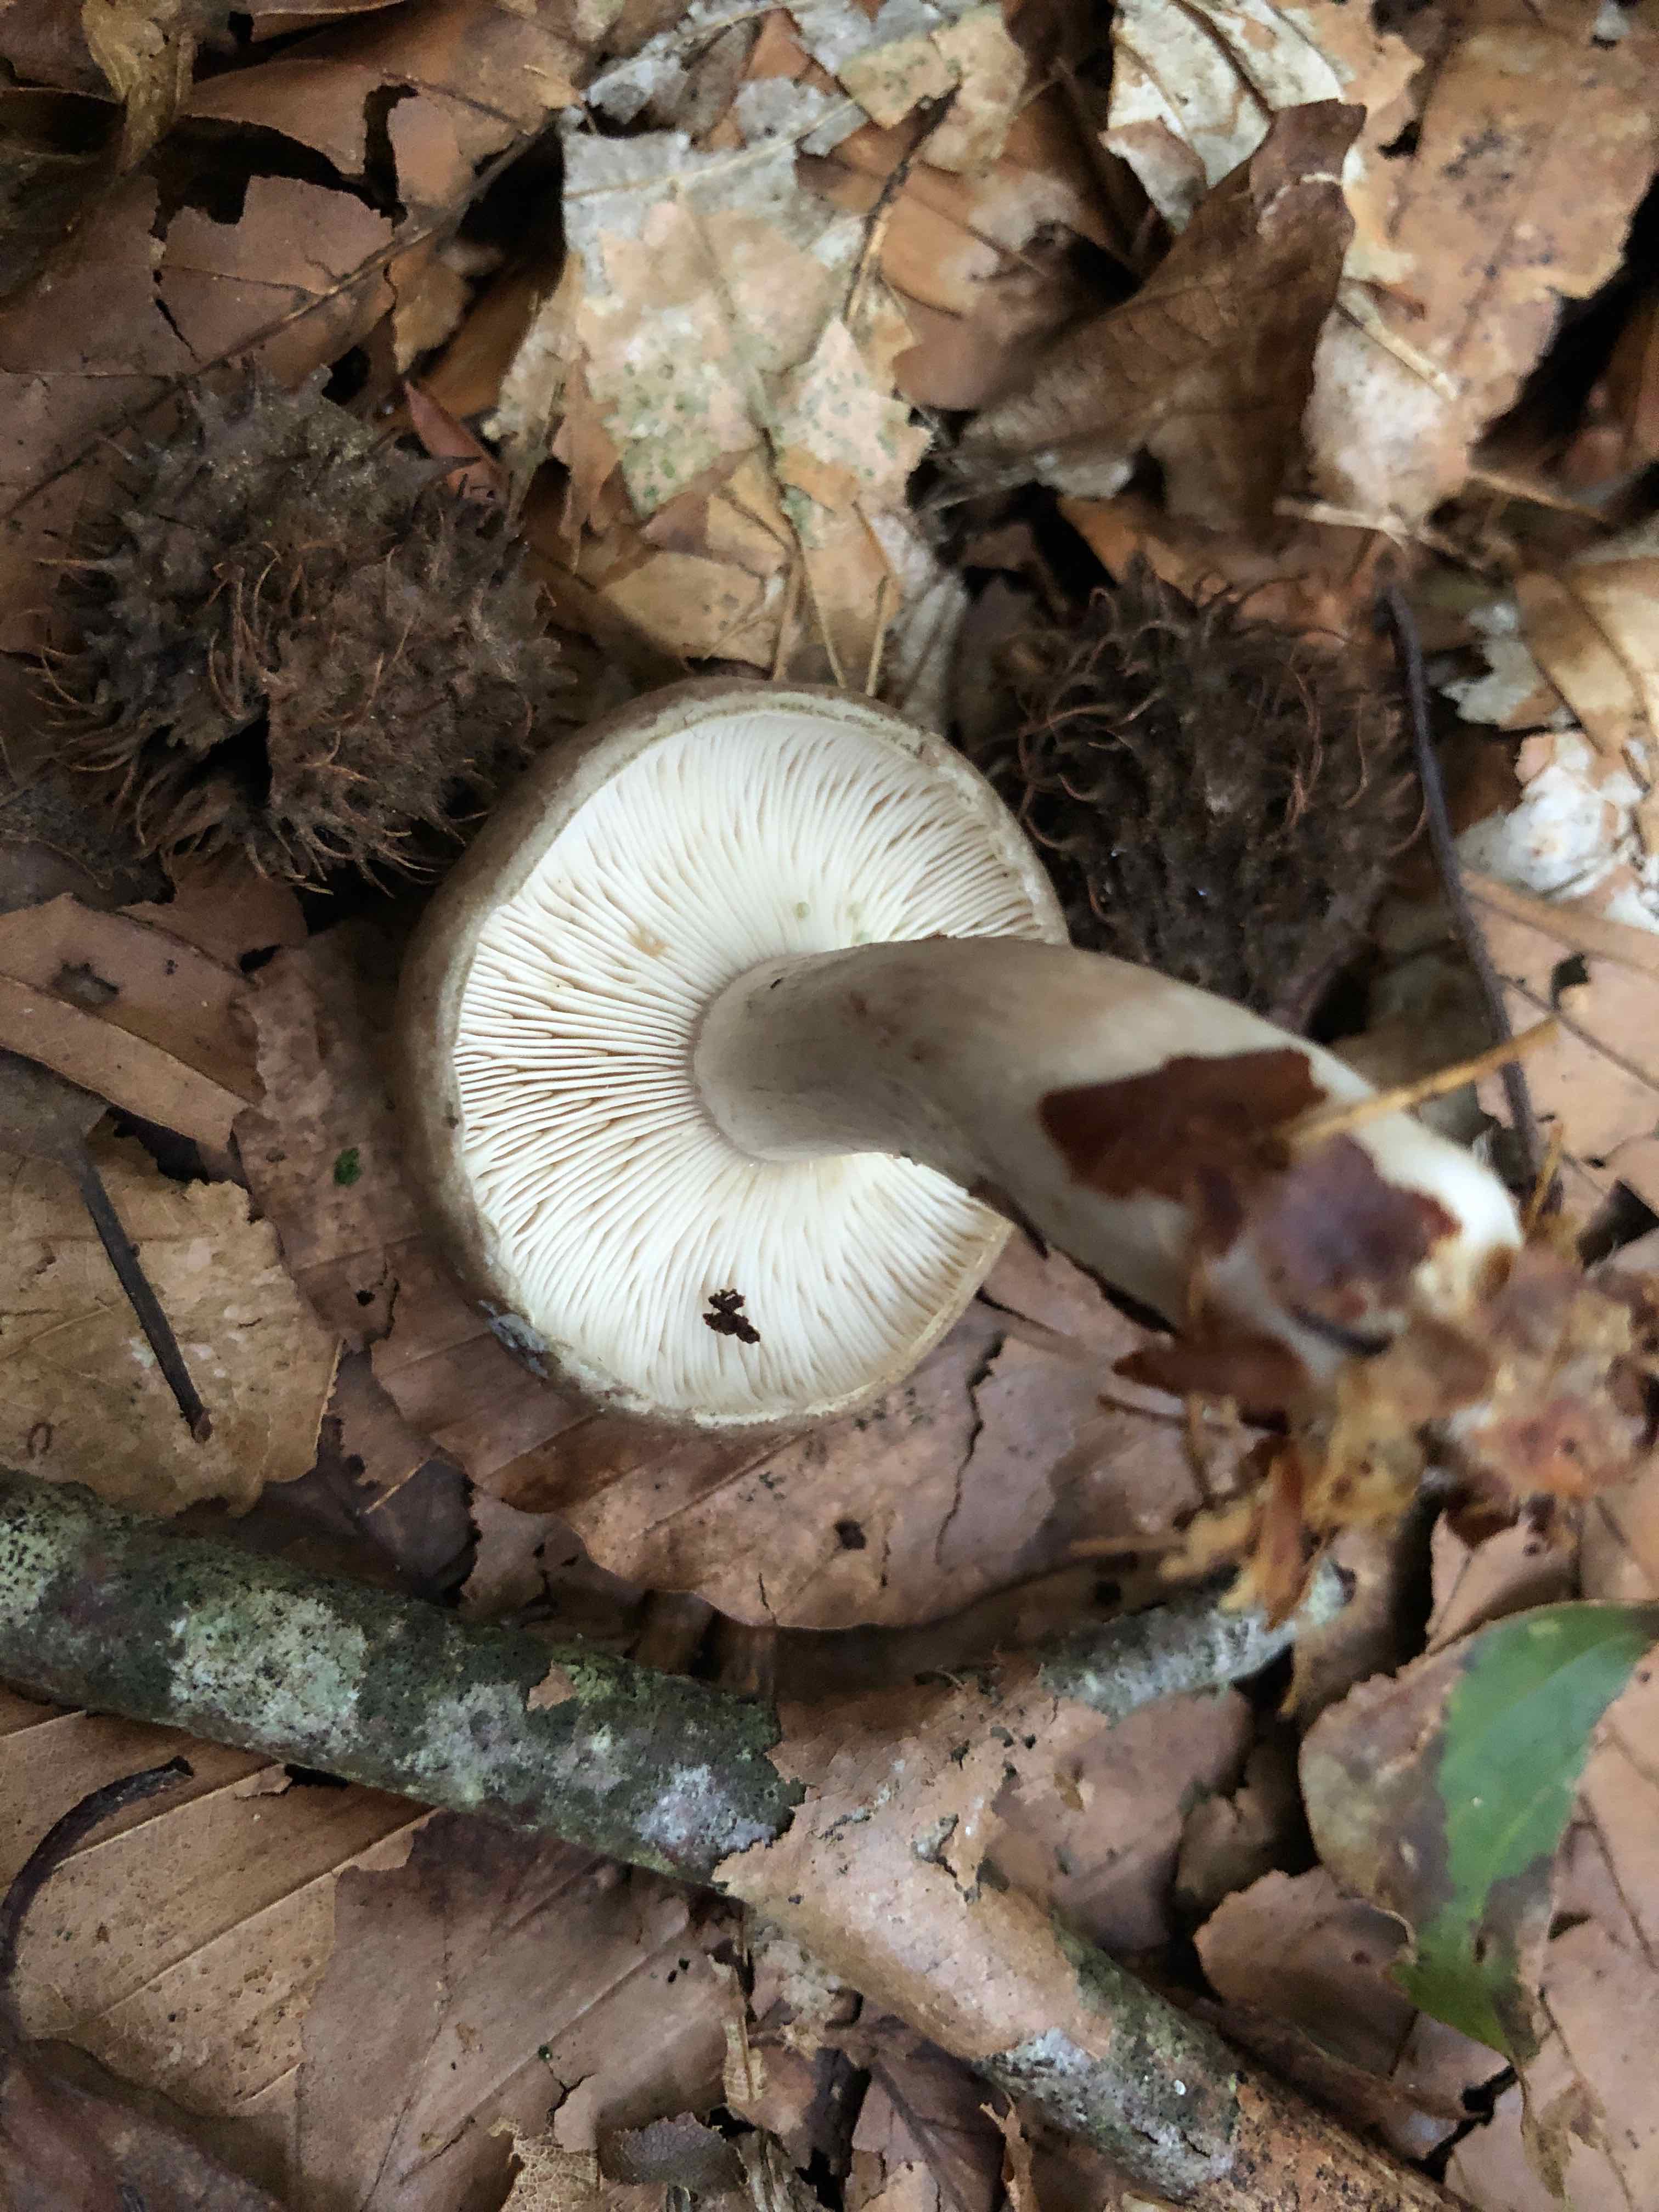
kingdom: Fungi
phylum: Basidiomycota
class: Agaricomycetes
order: Russulales
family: Russulaceae
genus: Lactarius
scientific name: Lactarius blennius
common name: dråbeplettet mælkehat
